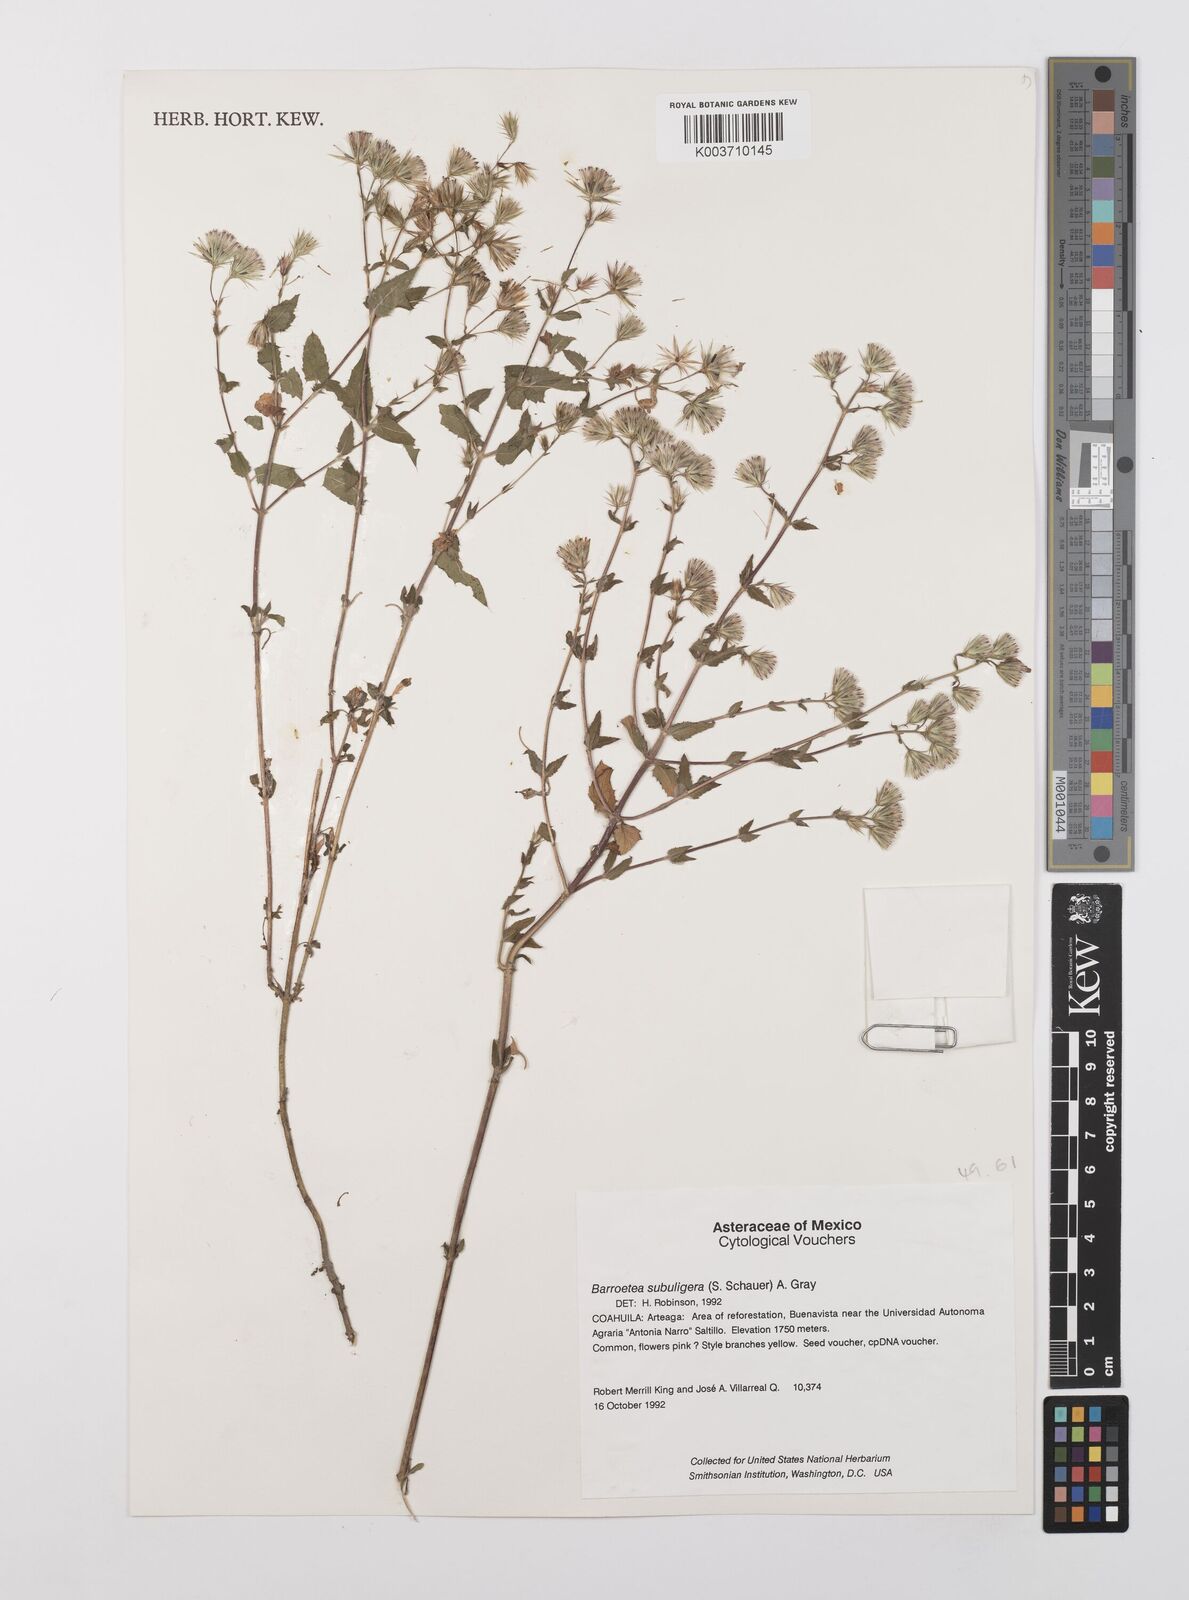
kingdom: Plantae
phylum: Tracheophyta
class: Magnoliopsida
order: Asterales
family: Asteraceae
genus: Brickellia
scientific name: Brickellia subuligera
